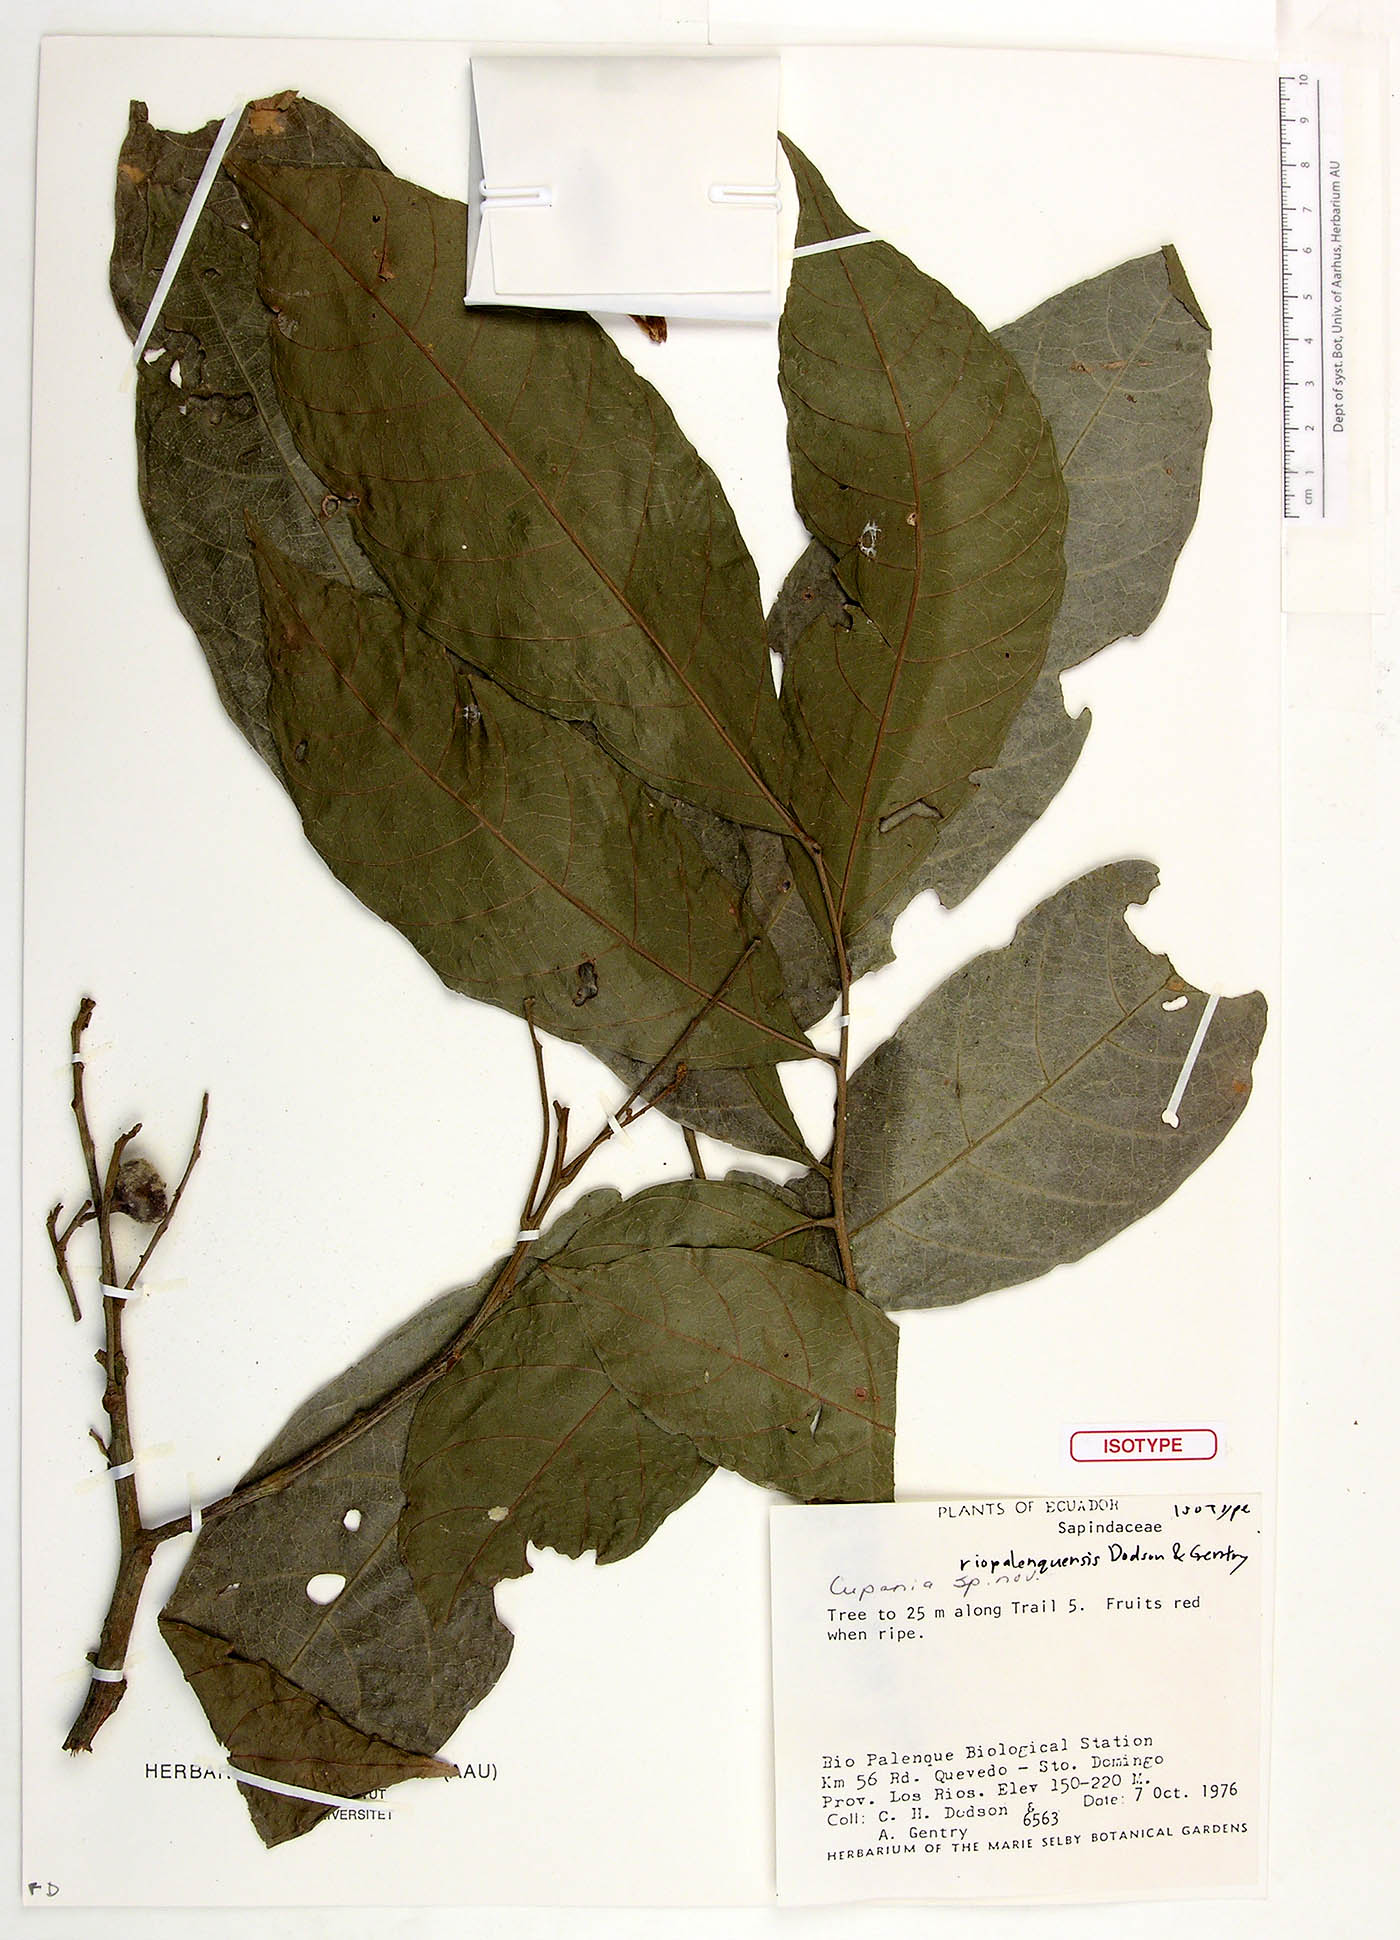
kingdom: Plantae
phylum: Tracheophyta
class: Magnoliopsida
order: Sapindales
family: Sapindaceae
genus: Cupania
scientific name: Cupania riopalenquensis
